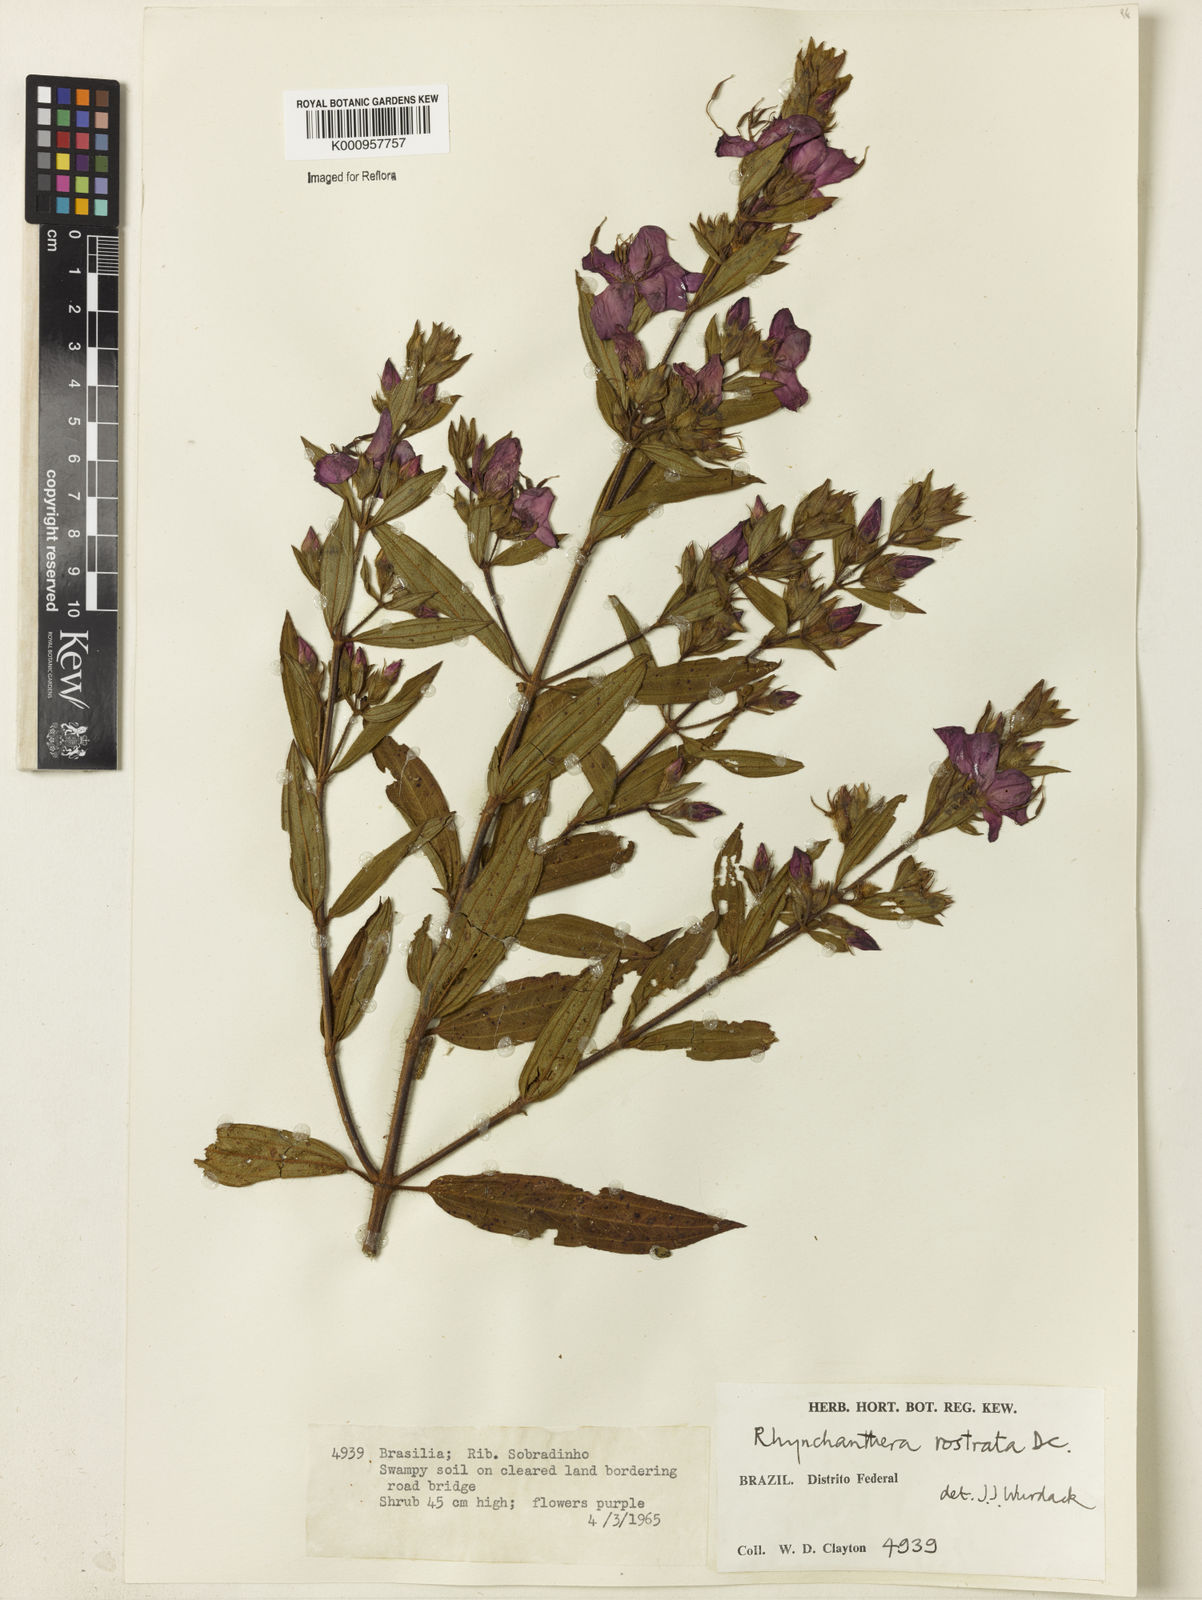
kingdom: Plantae
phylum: Tracheophyta
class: Magnoliopsida
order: Myrtales
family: Melastomataceae
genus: Rhynchanthera
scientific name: Rhynchanthera grandiflora
